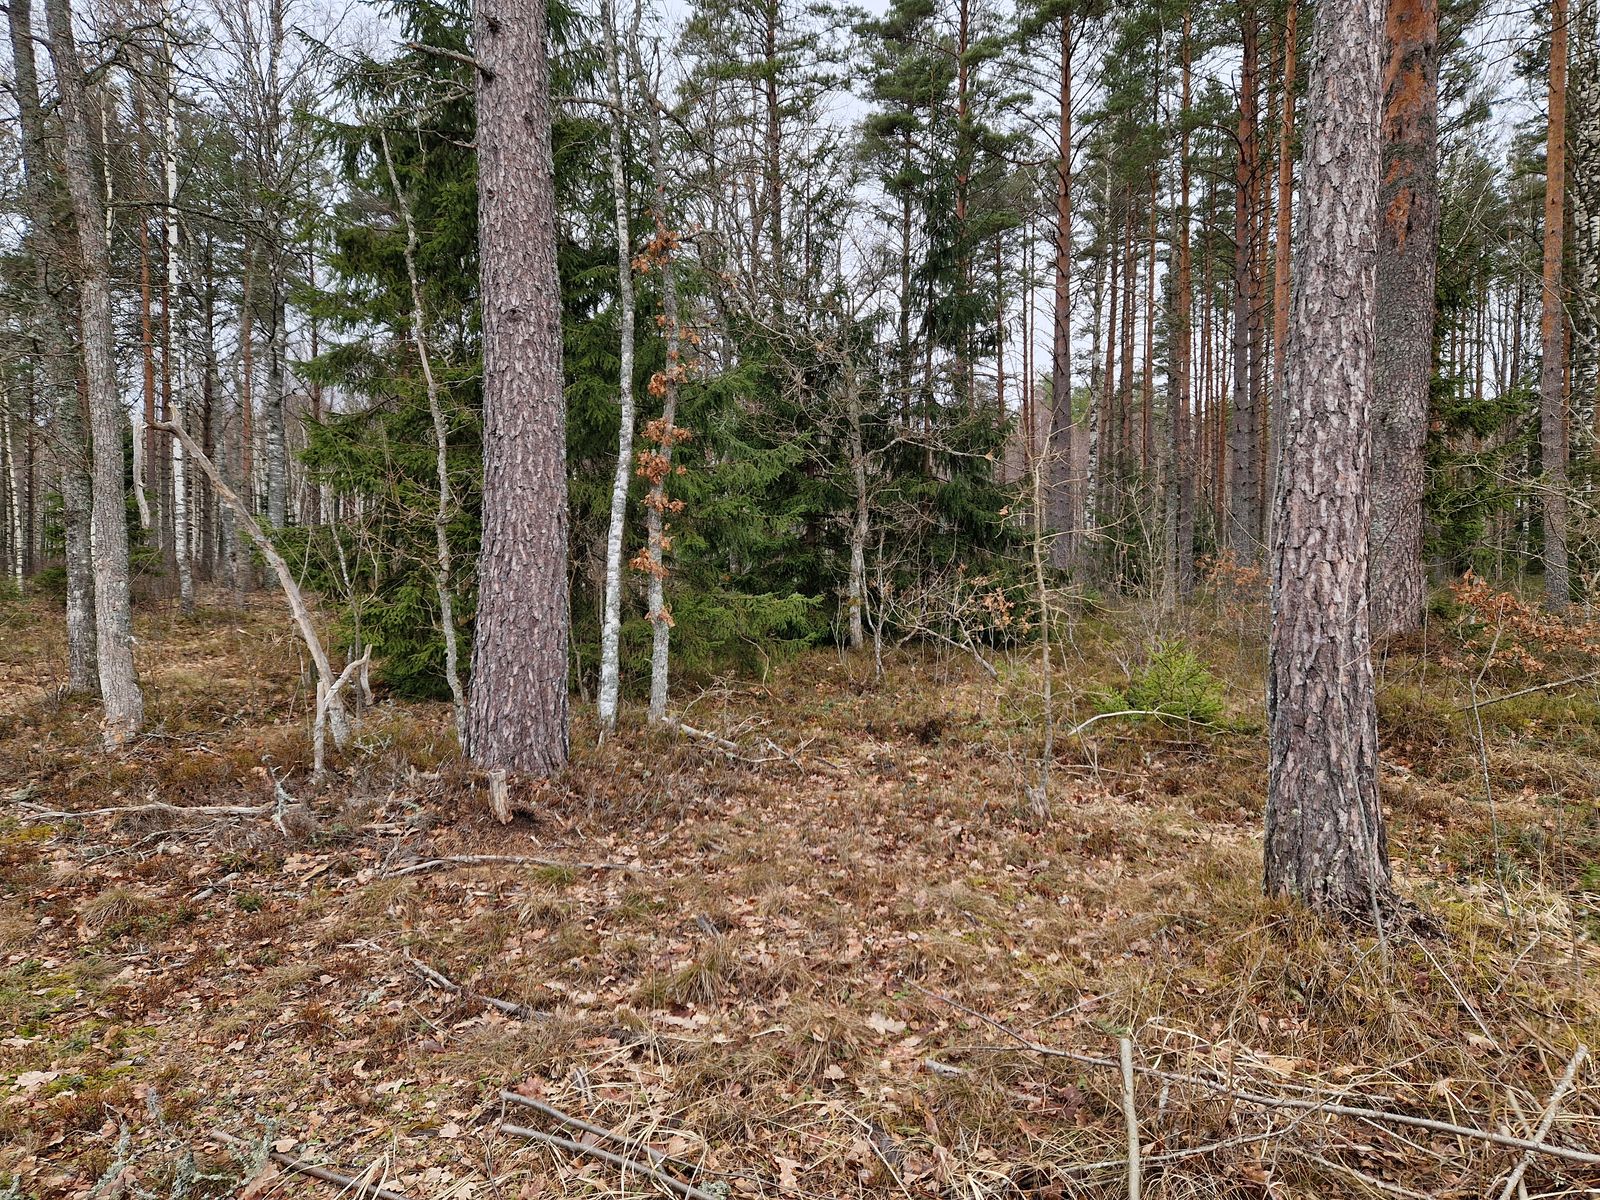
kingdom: Animalia
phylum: Chordata
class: Aves
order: Galliformes
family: Phasianidae
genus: Tetrastes
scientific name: Tetrastes bonasia
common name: Hazel grouse
